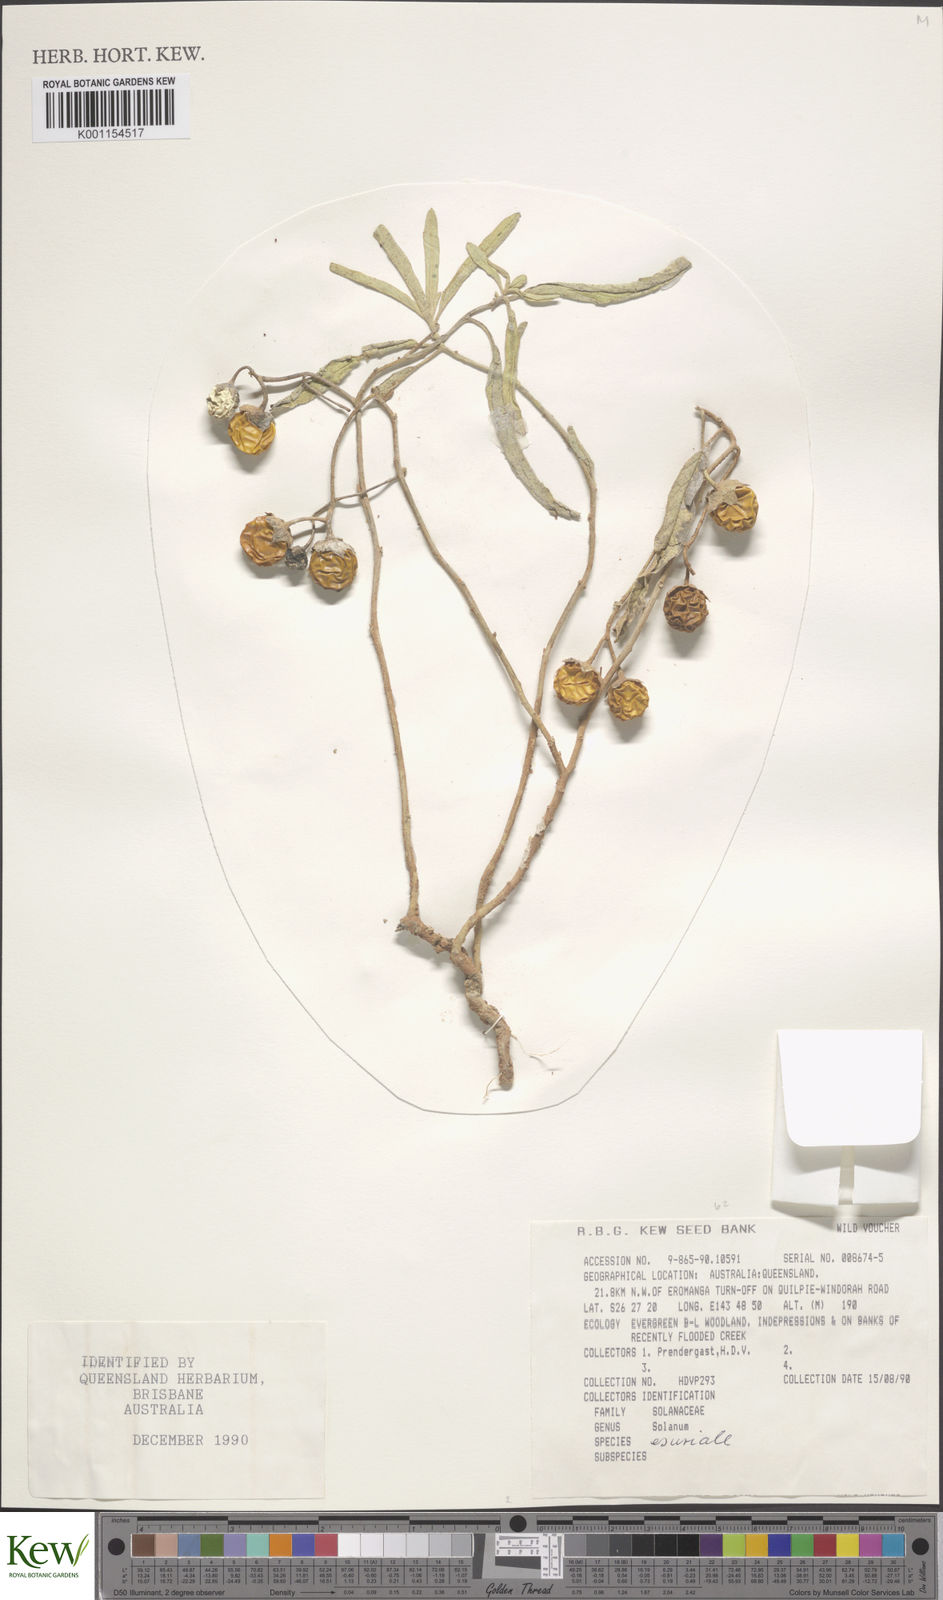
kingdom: Plantae
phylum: Tracheophyta
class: Magnoliopsida
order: Solanales
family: Solanaceae
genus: Solanum
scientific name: Solanum esuriale
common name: Wild tomato
